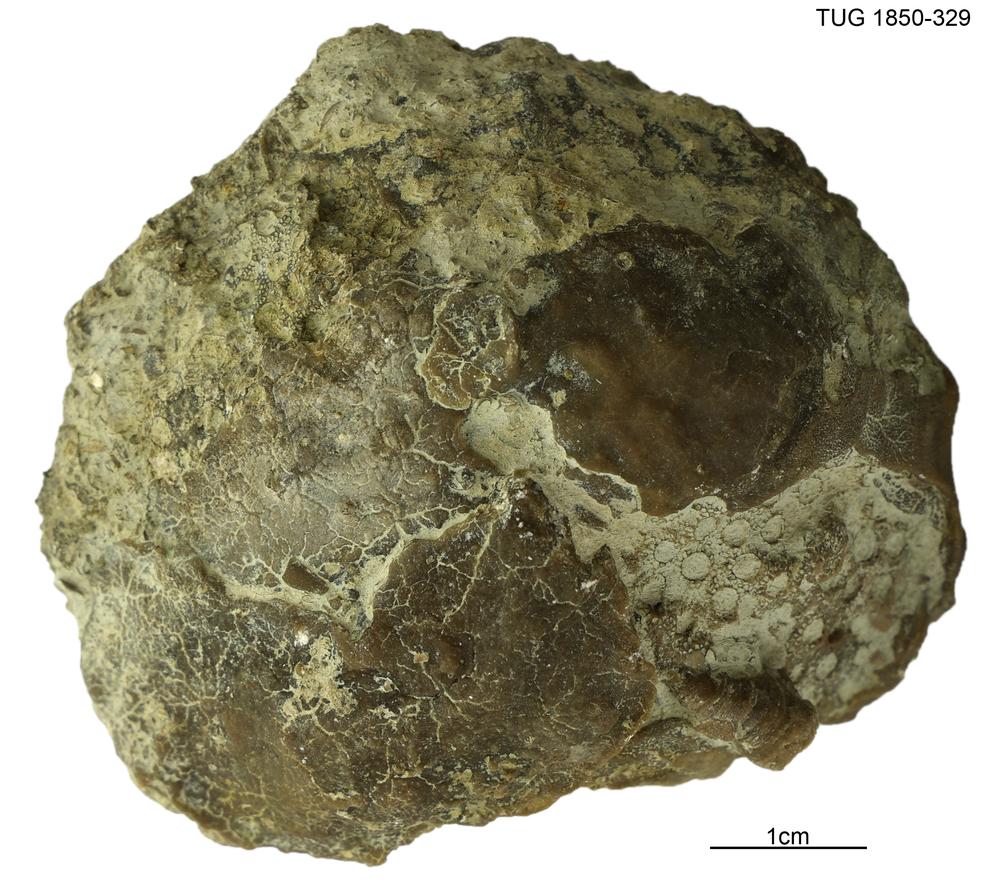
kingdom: Animalia
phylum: Porifera
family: Pseudolabechiidae
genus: Pseudolabechia
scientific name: Pseudolabechia
